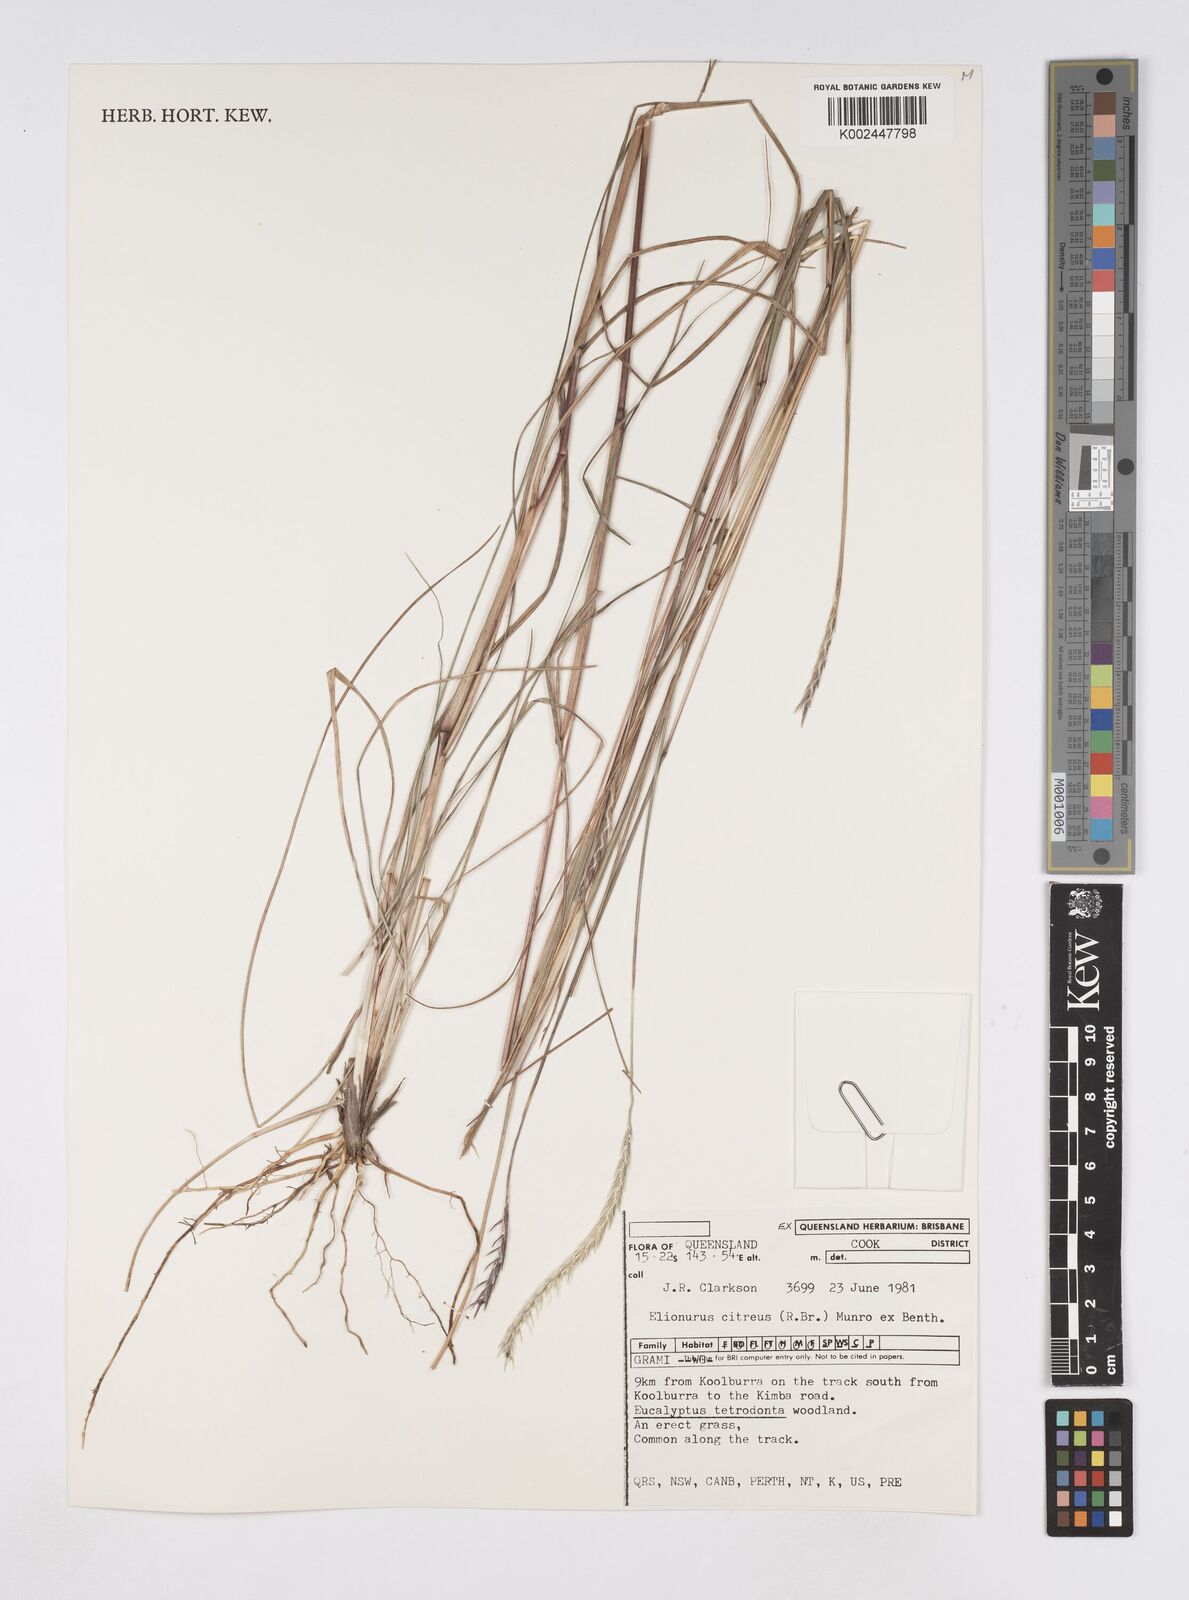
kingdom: Plantae
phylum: Tracheophyta
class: Liliopsida
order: Poales
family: Poaceae
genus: Elionurus
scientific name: Elionurus citreus
